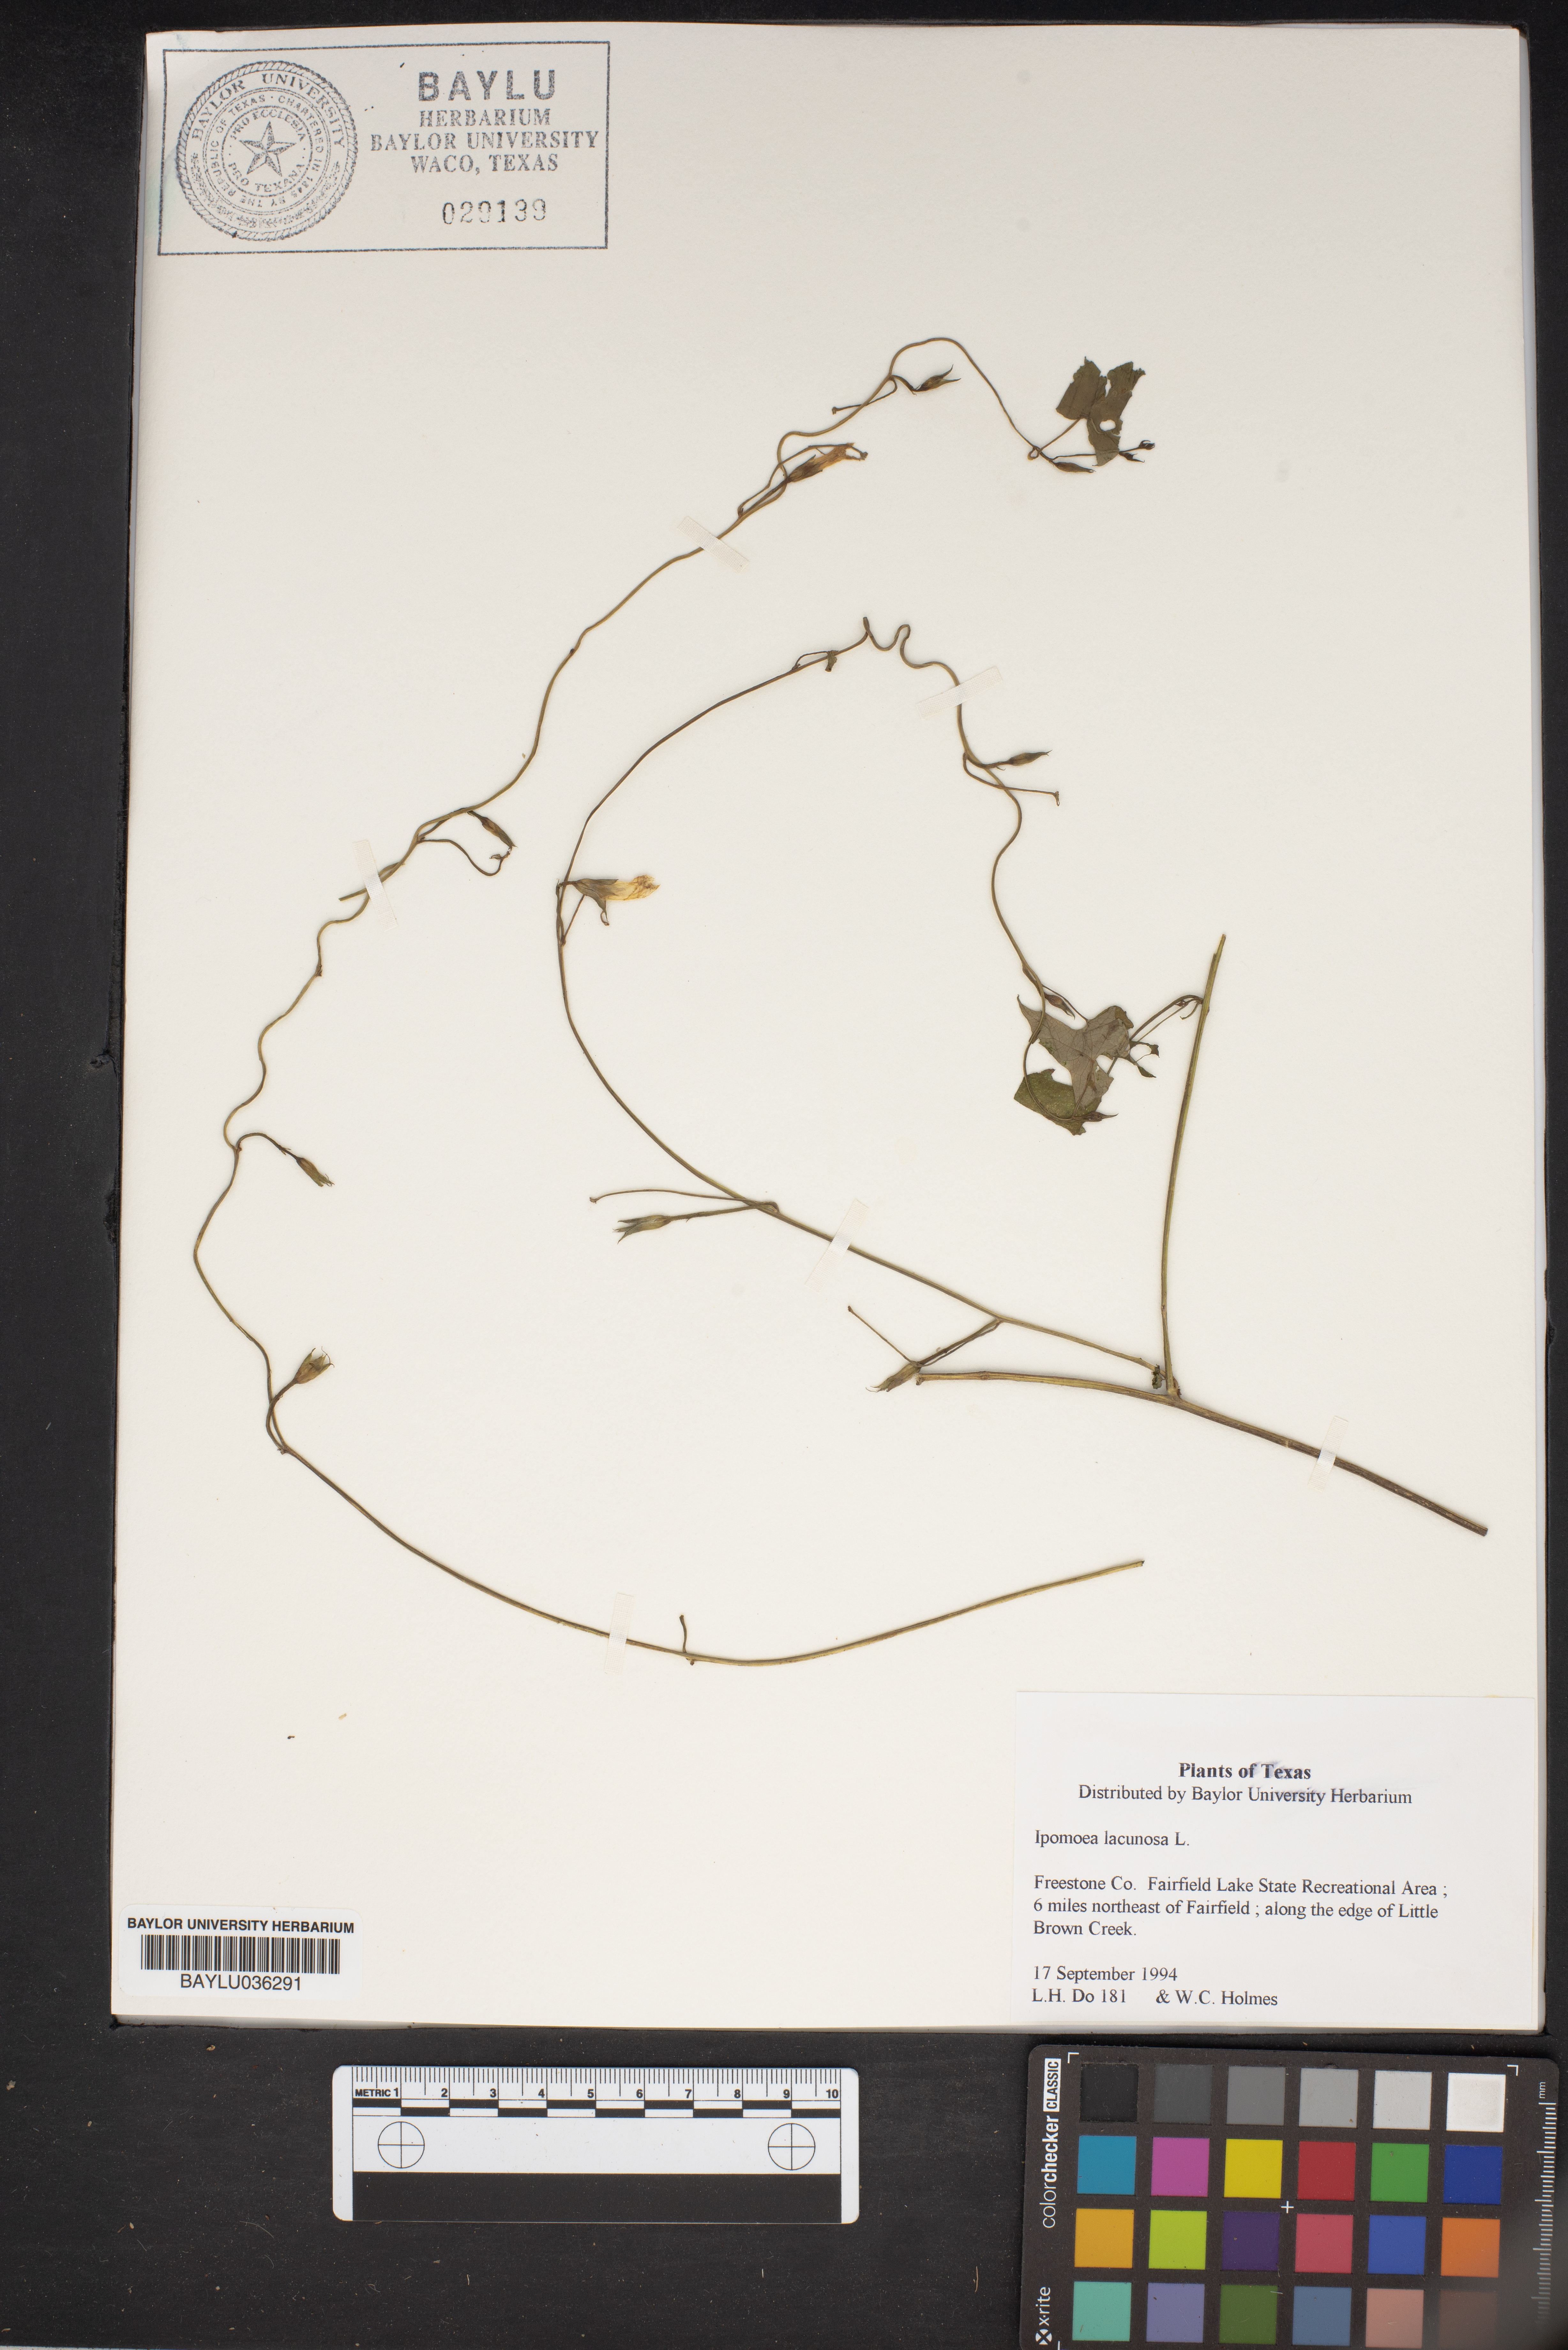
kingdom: Plantae
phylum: Tracheophyta
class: Magnoliopsida
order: Solanales
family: Convolvulaceae
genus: Ipomoea
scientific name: Ipomoea lacunosa
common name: White morning-glory
